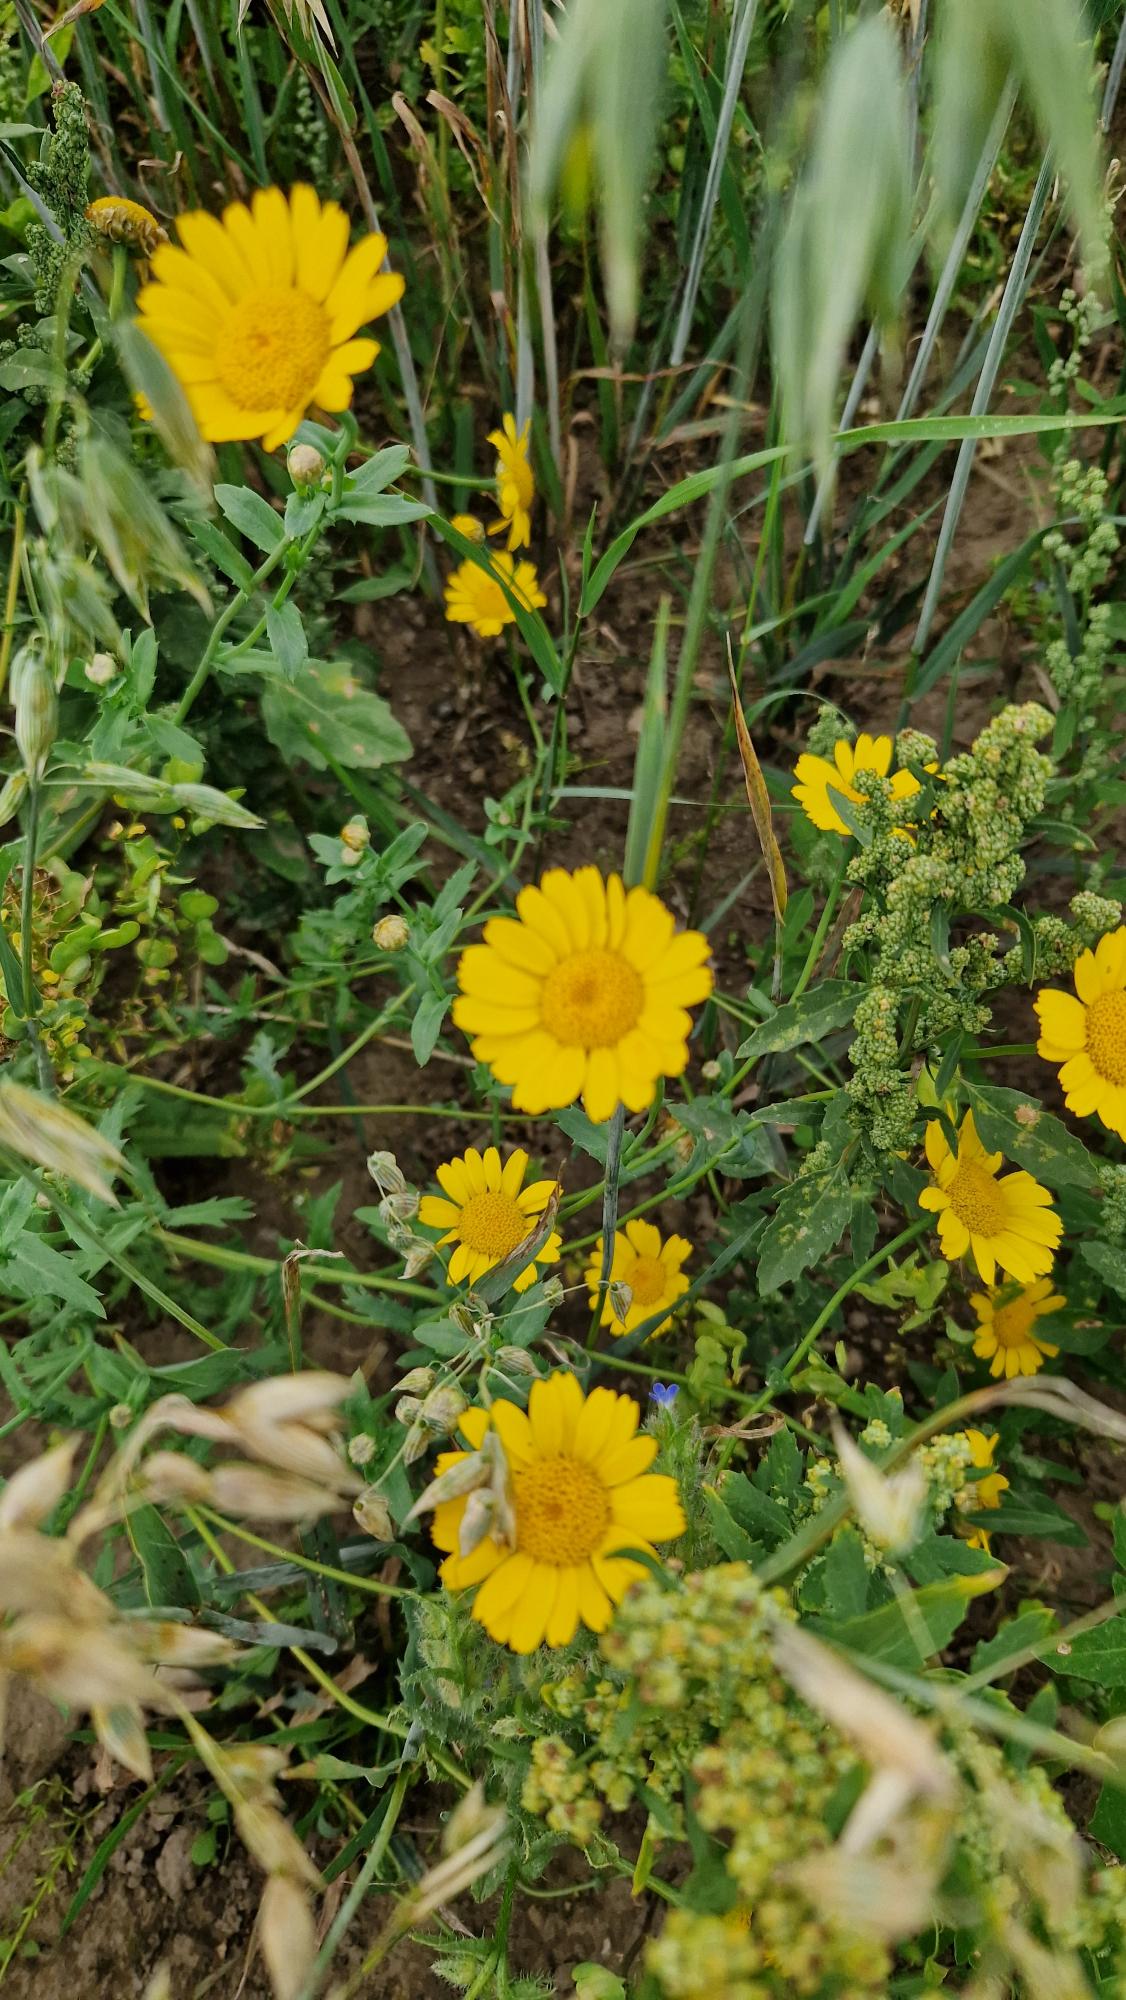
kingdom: Plantae
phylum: Tracheophyta
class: Magnoliopsida
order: Asterales
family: Asteraceae
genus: Glebionis
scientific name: Glebionis segetum
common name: Gul okseøje
